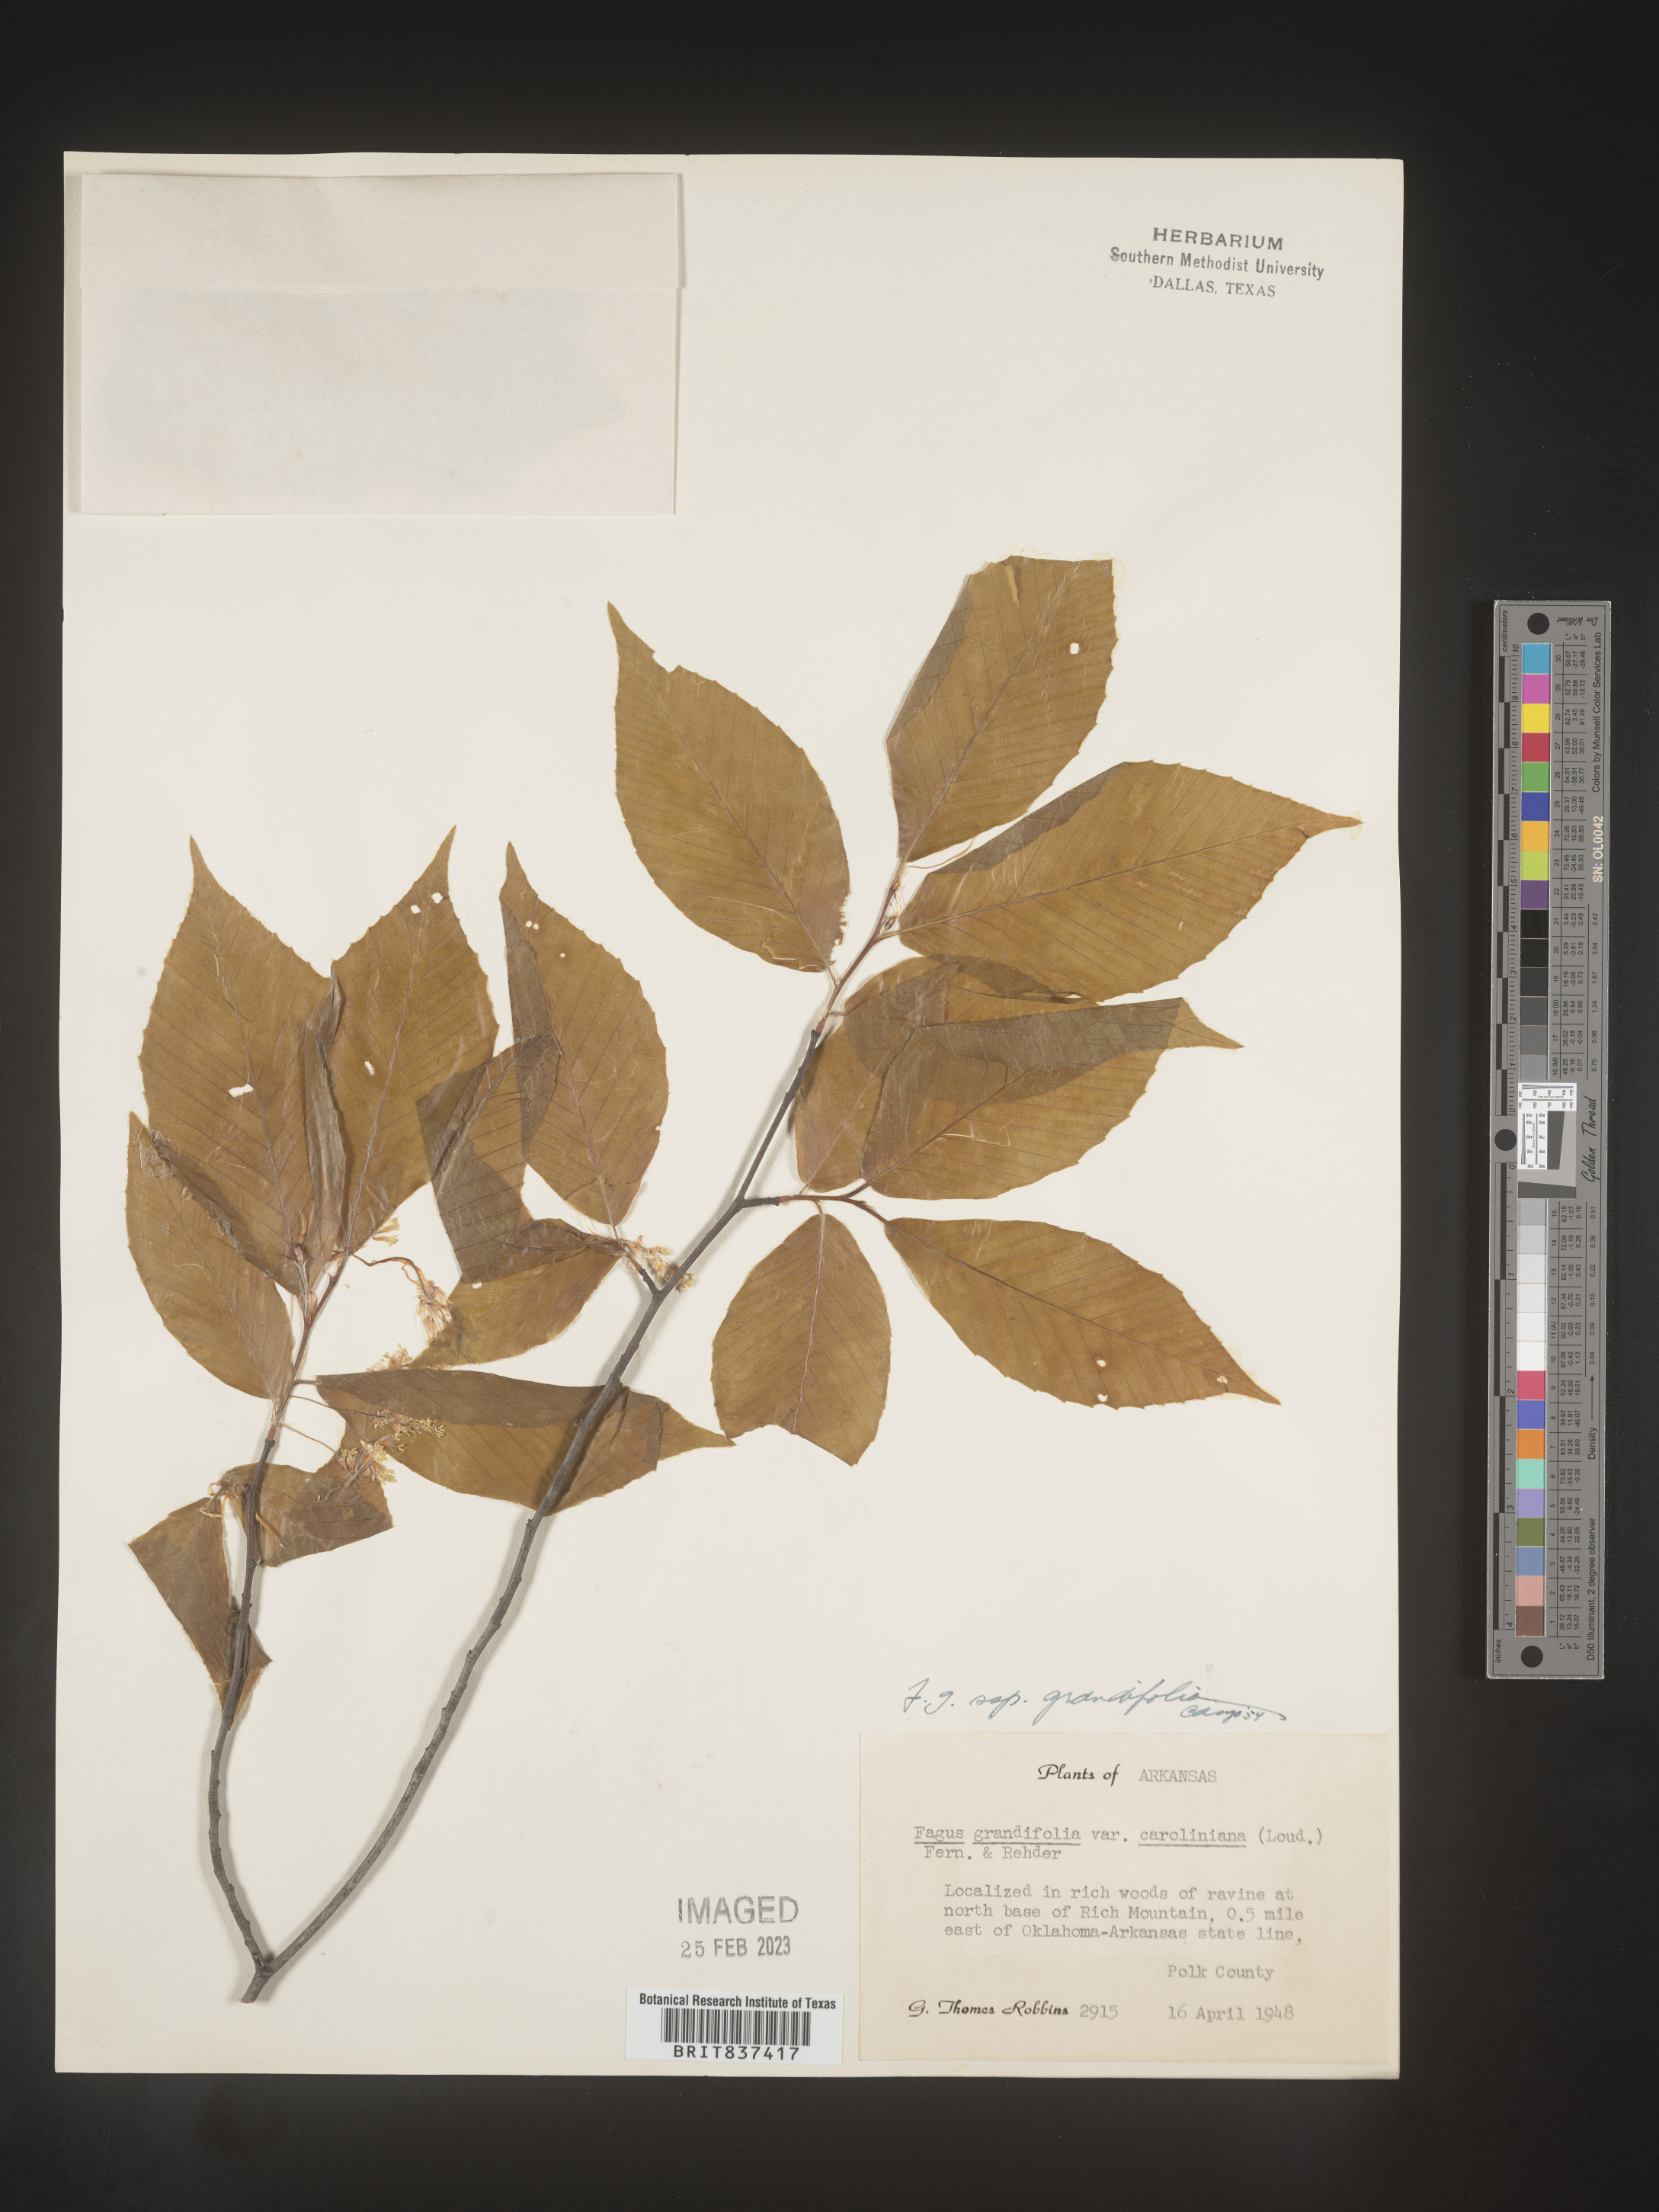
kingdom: Plantae
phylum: Tracheophyta
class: Magnoliopsida
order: Fagales
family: Fagaceae
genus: Fagus
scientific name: Fagus grandifolia
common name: American beech
